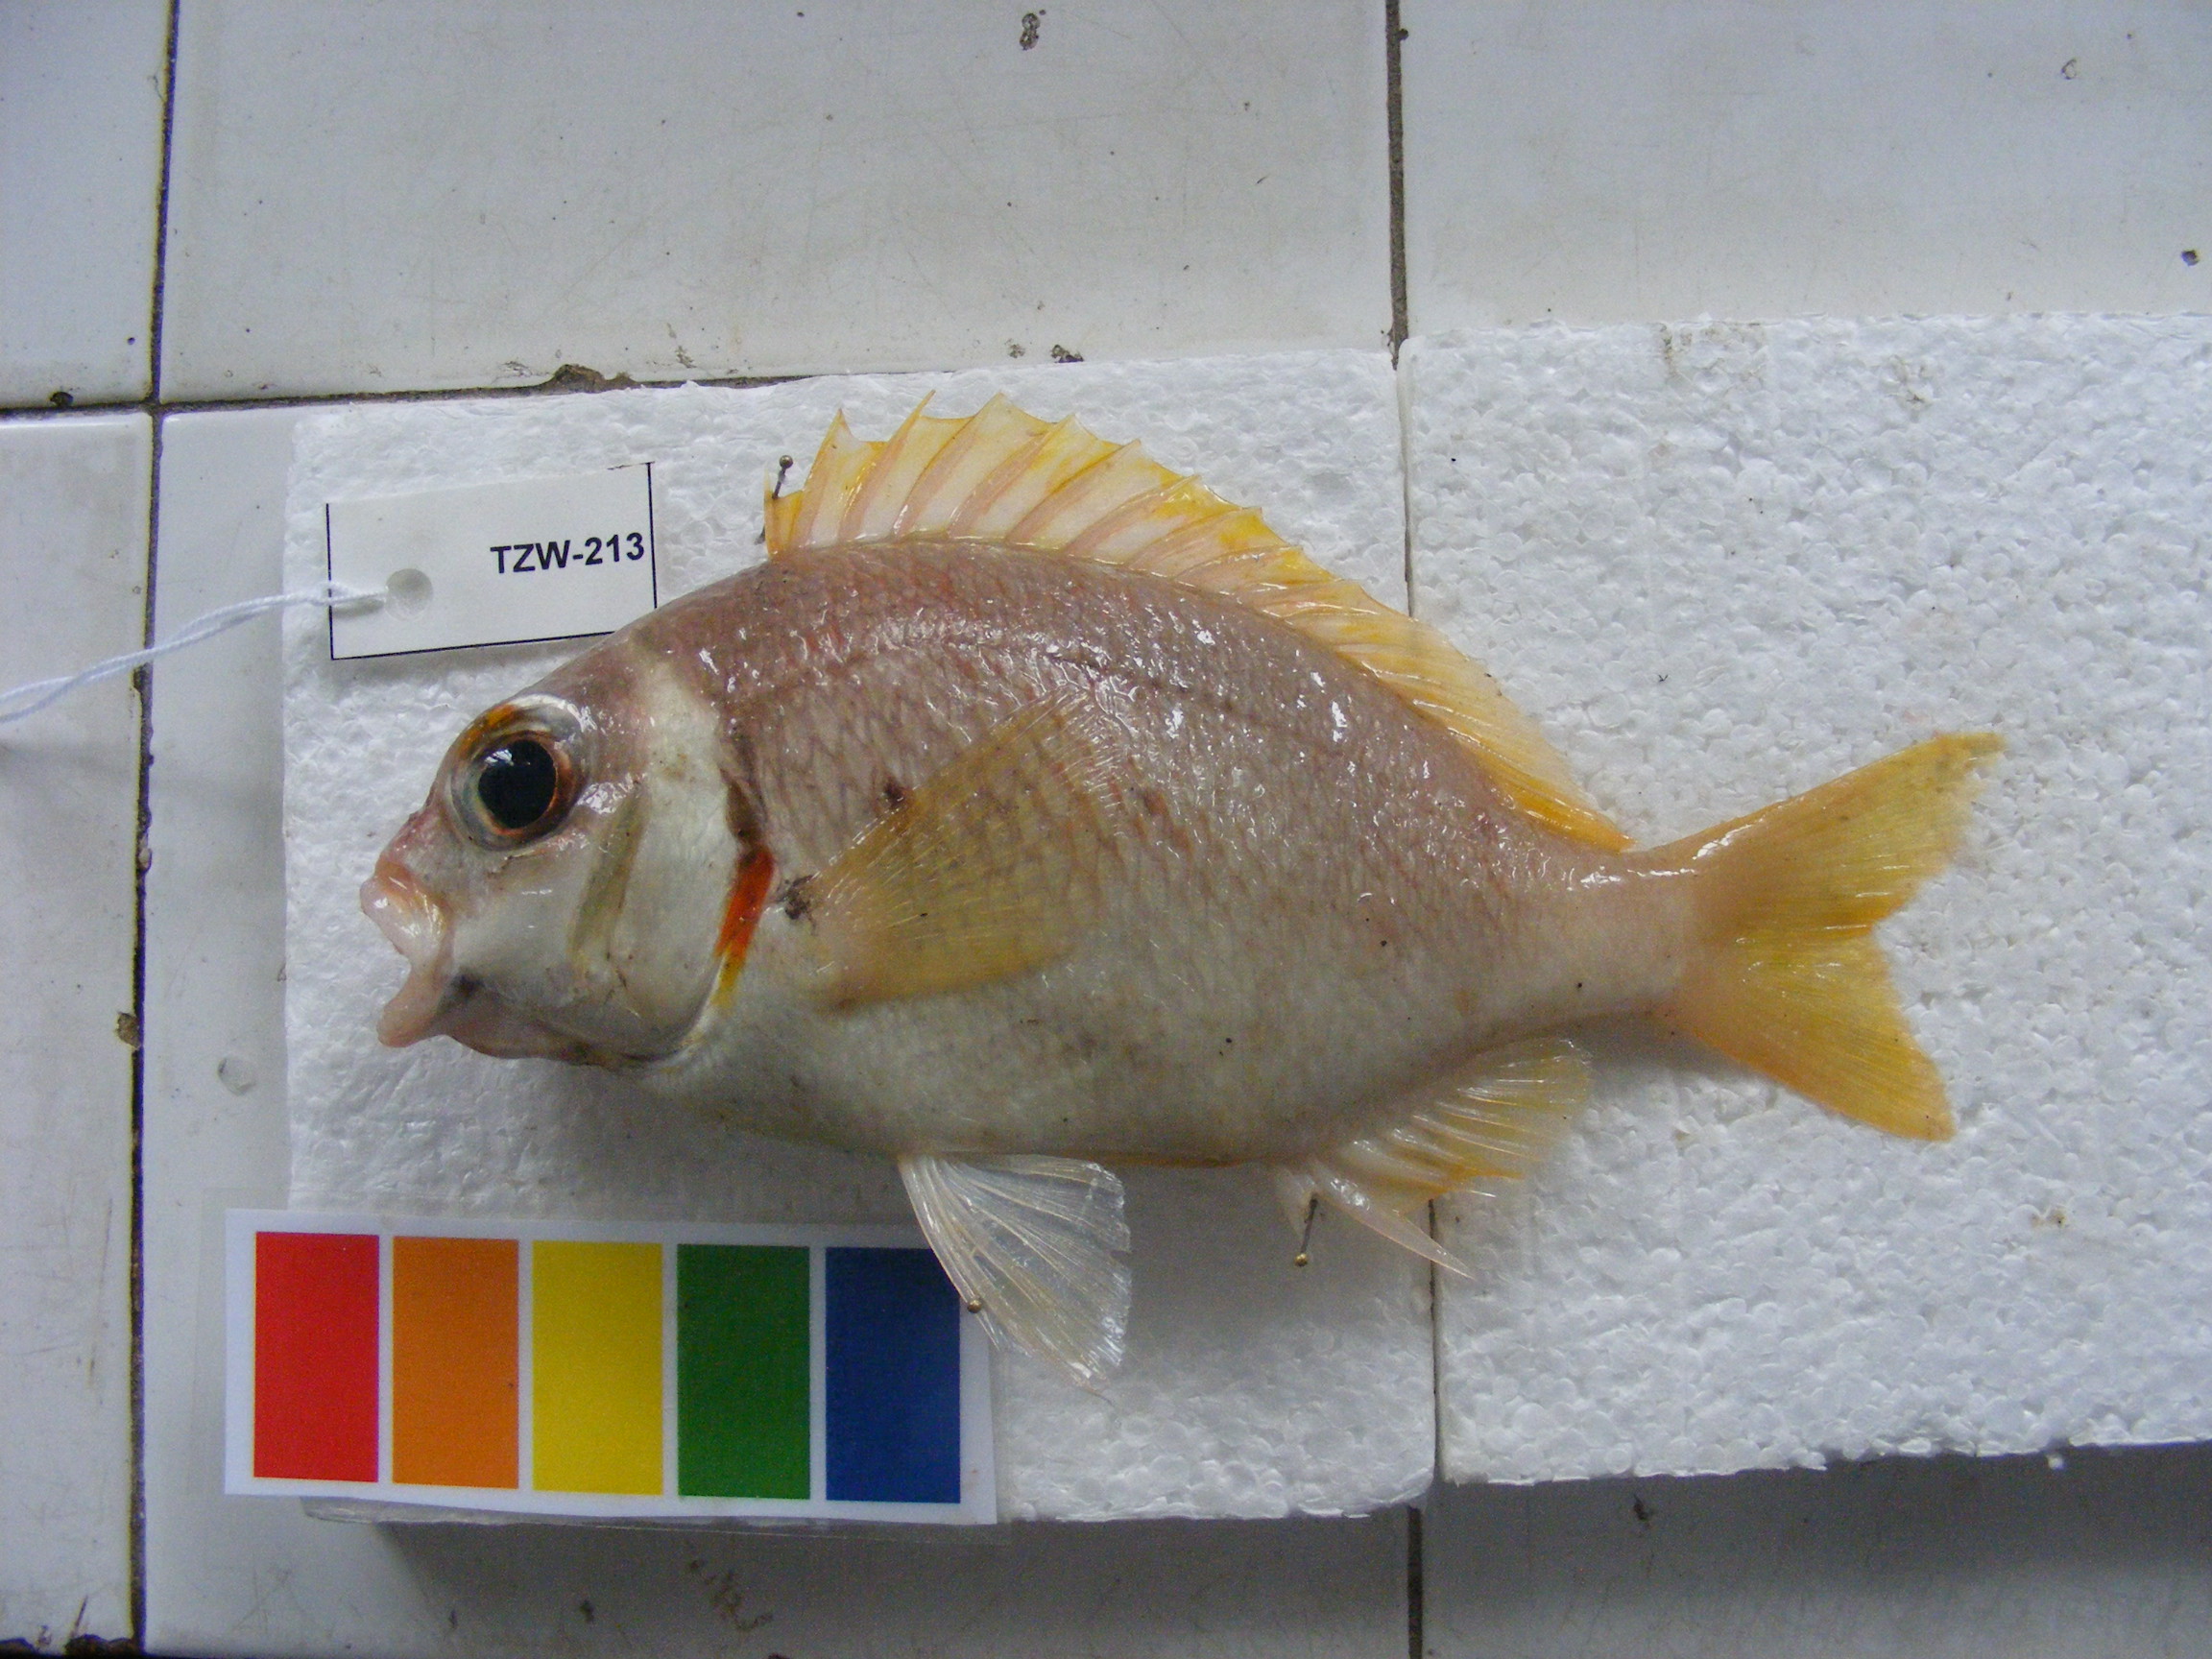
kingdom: Animalia
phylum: Chordata
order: Perciformes
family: Nemipteridae
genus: Scolopsis
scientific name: Scolopsis vosmeri
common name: Whitecheek monocle bream
